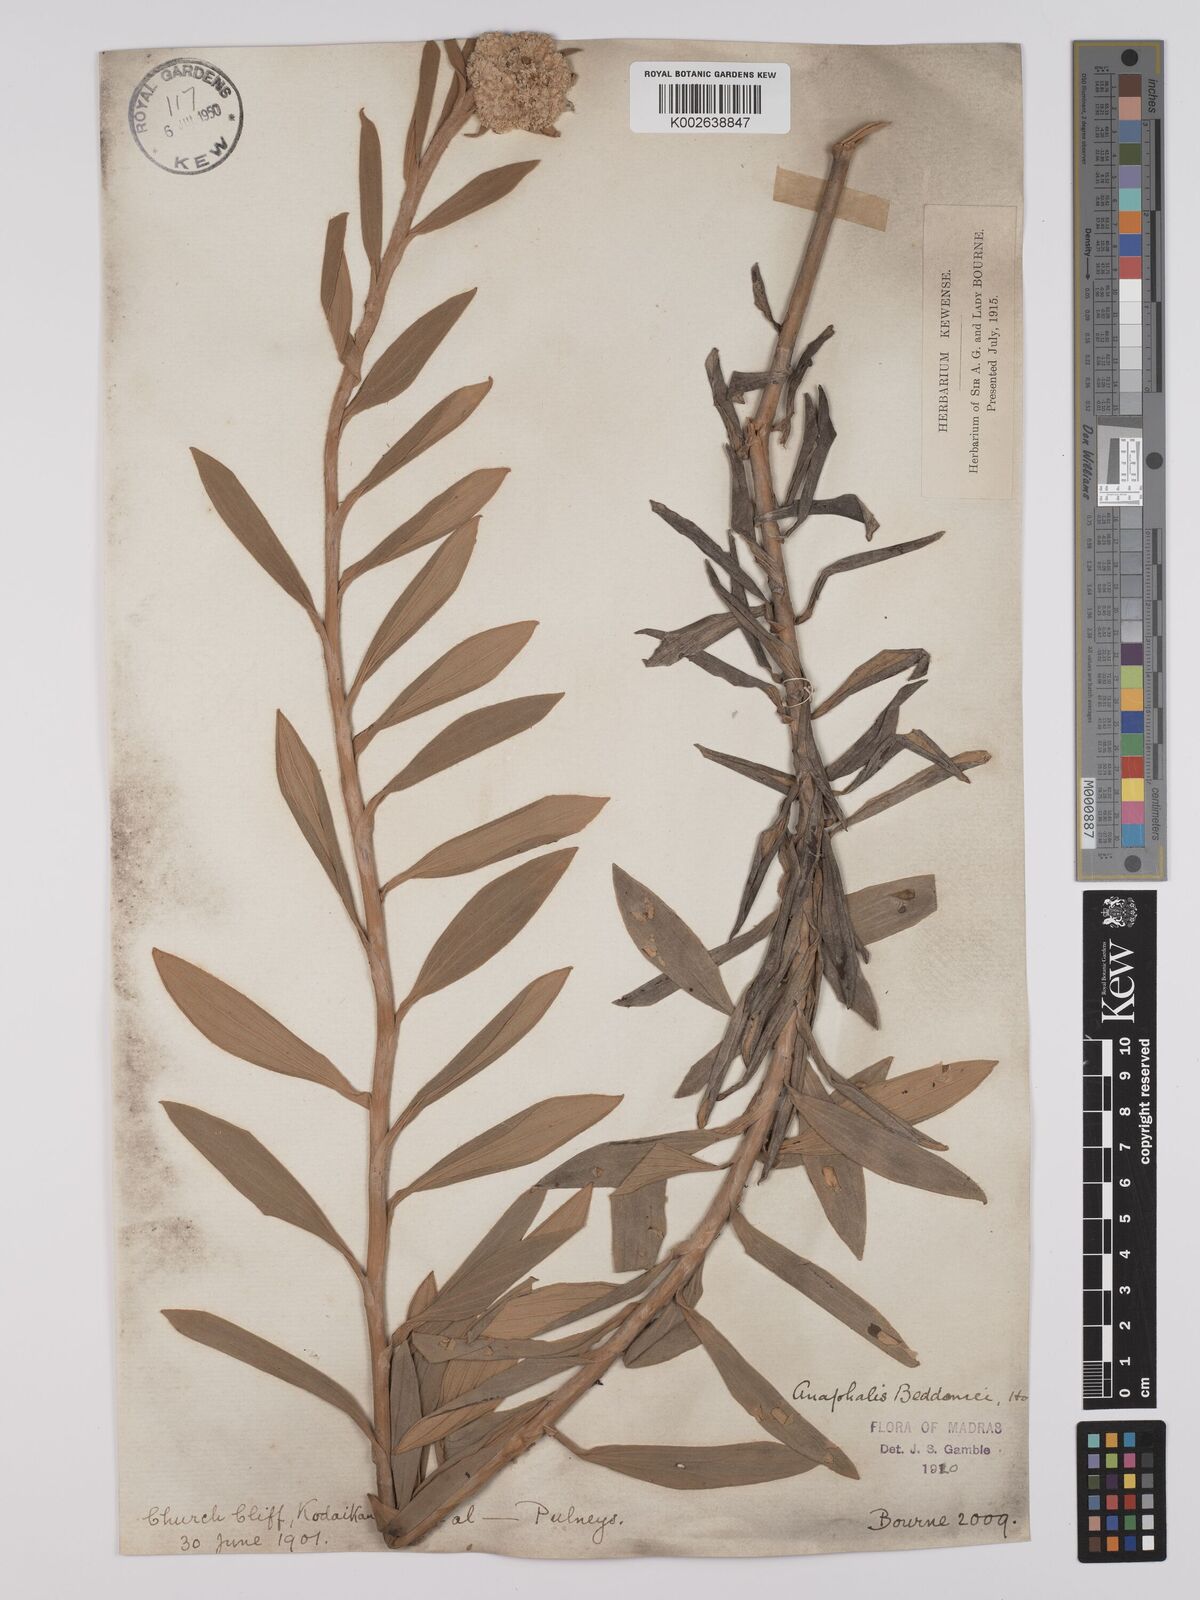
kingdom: Plantae
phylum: Tracheophyta
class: Magnoliopsida
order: Asterales
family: Asteraceae
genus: Anaphalis
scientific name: Anaphalis beddomei
